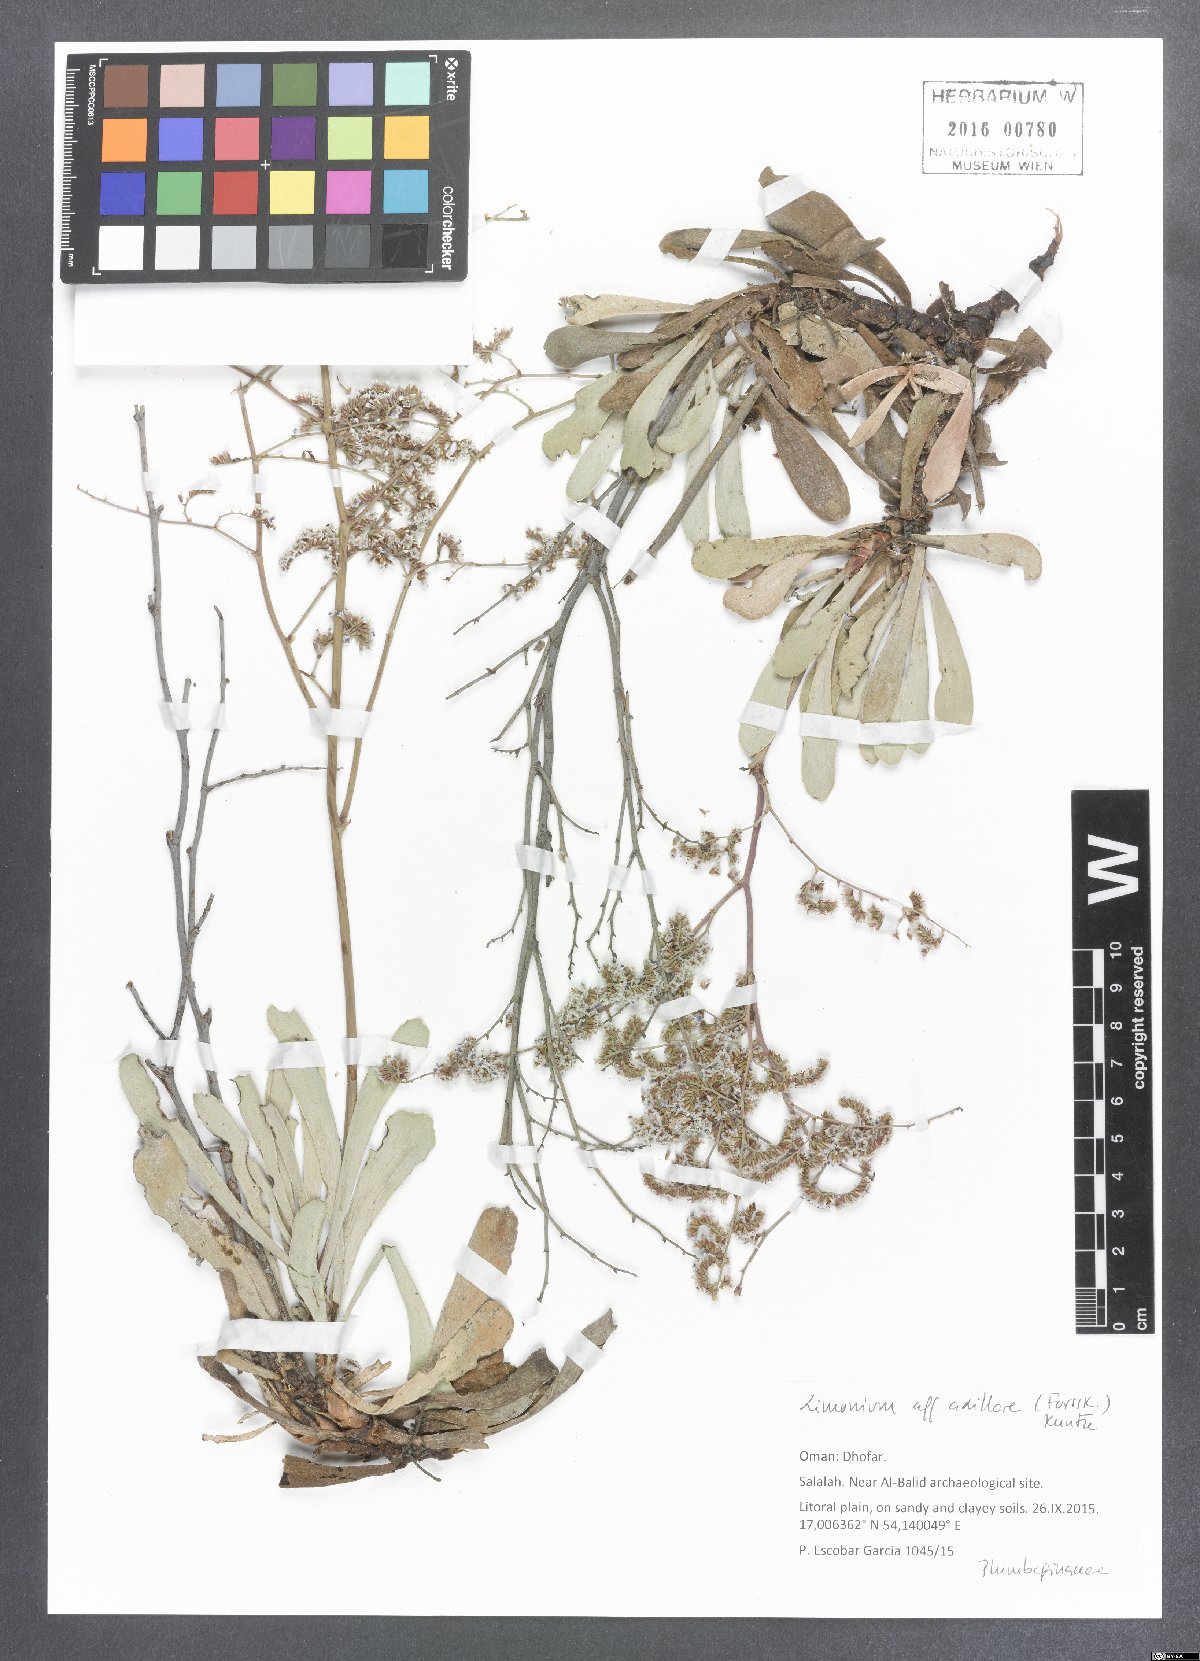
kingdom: Plantae
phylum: Tracheophyta
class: Magnoliopsida
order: Caryophyllales
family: Plumbaginaceae
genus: Limonium
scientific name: Limonium axillare
